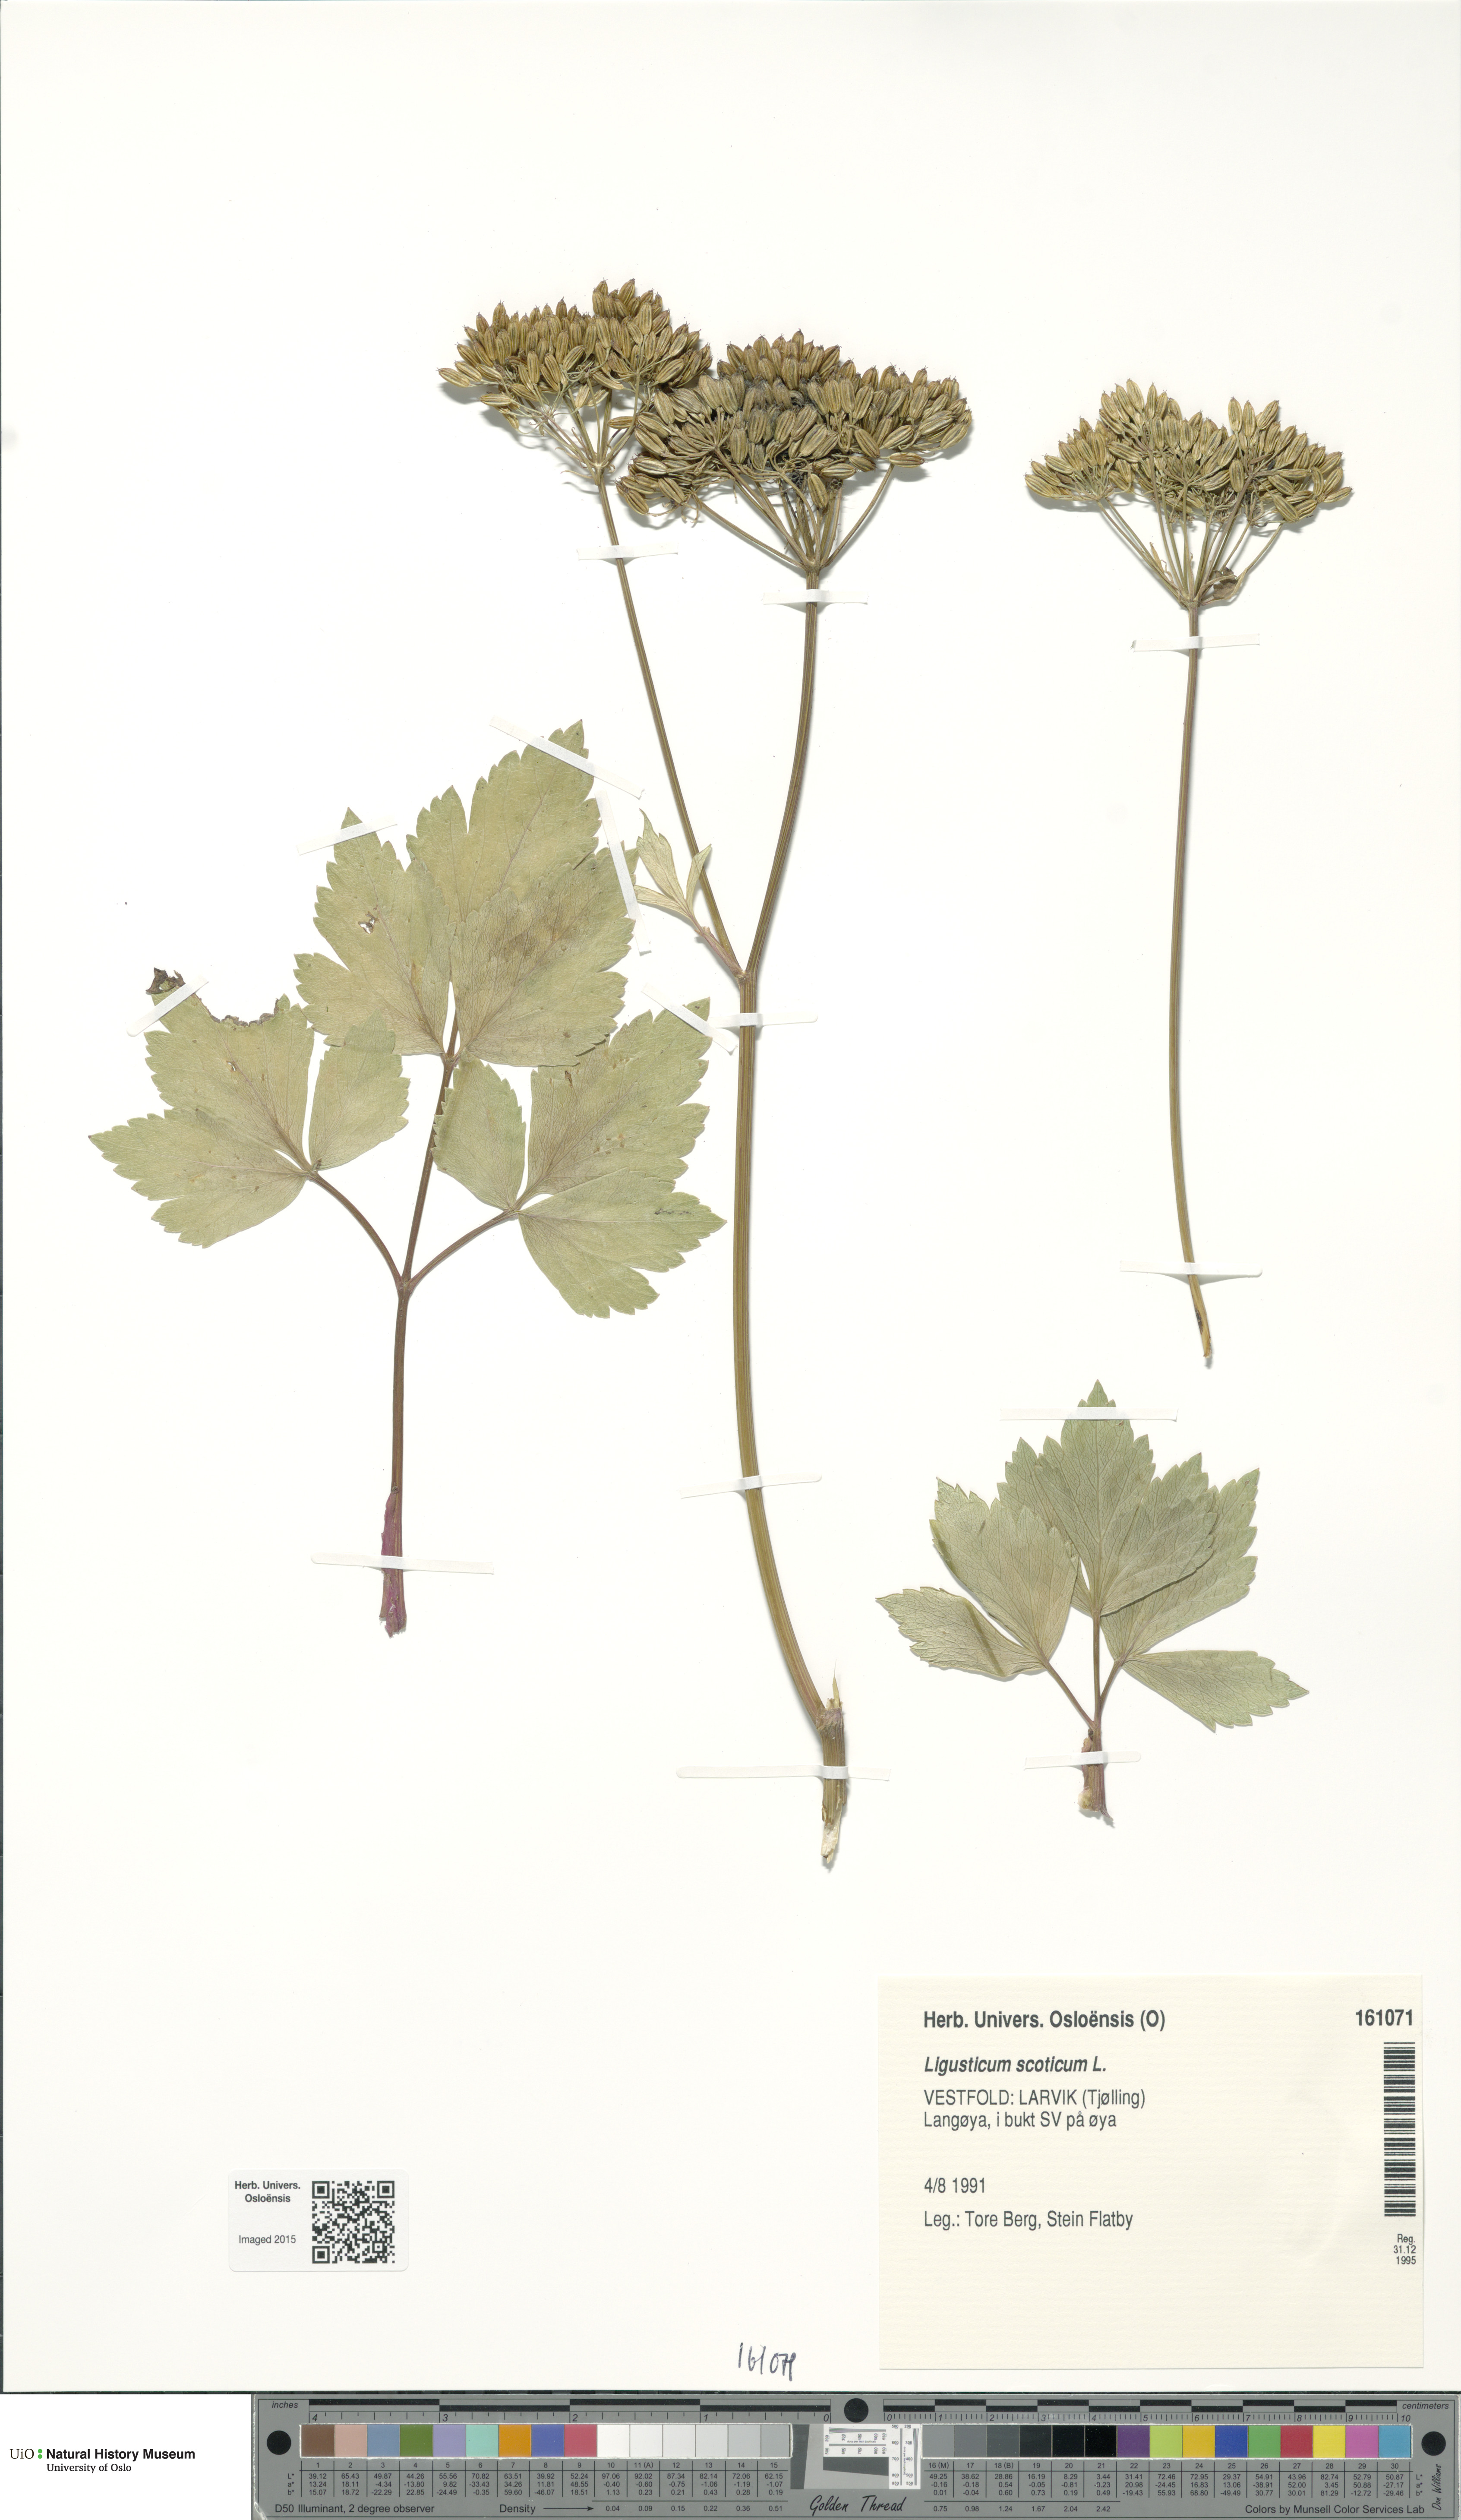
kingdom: Plantae
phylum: Tracheophyta
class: Magnoliopsida
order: Apiales
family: Apiaceae
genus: Ligusticum
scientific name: Ligusticum scothicum
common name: Beach lovage
